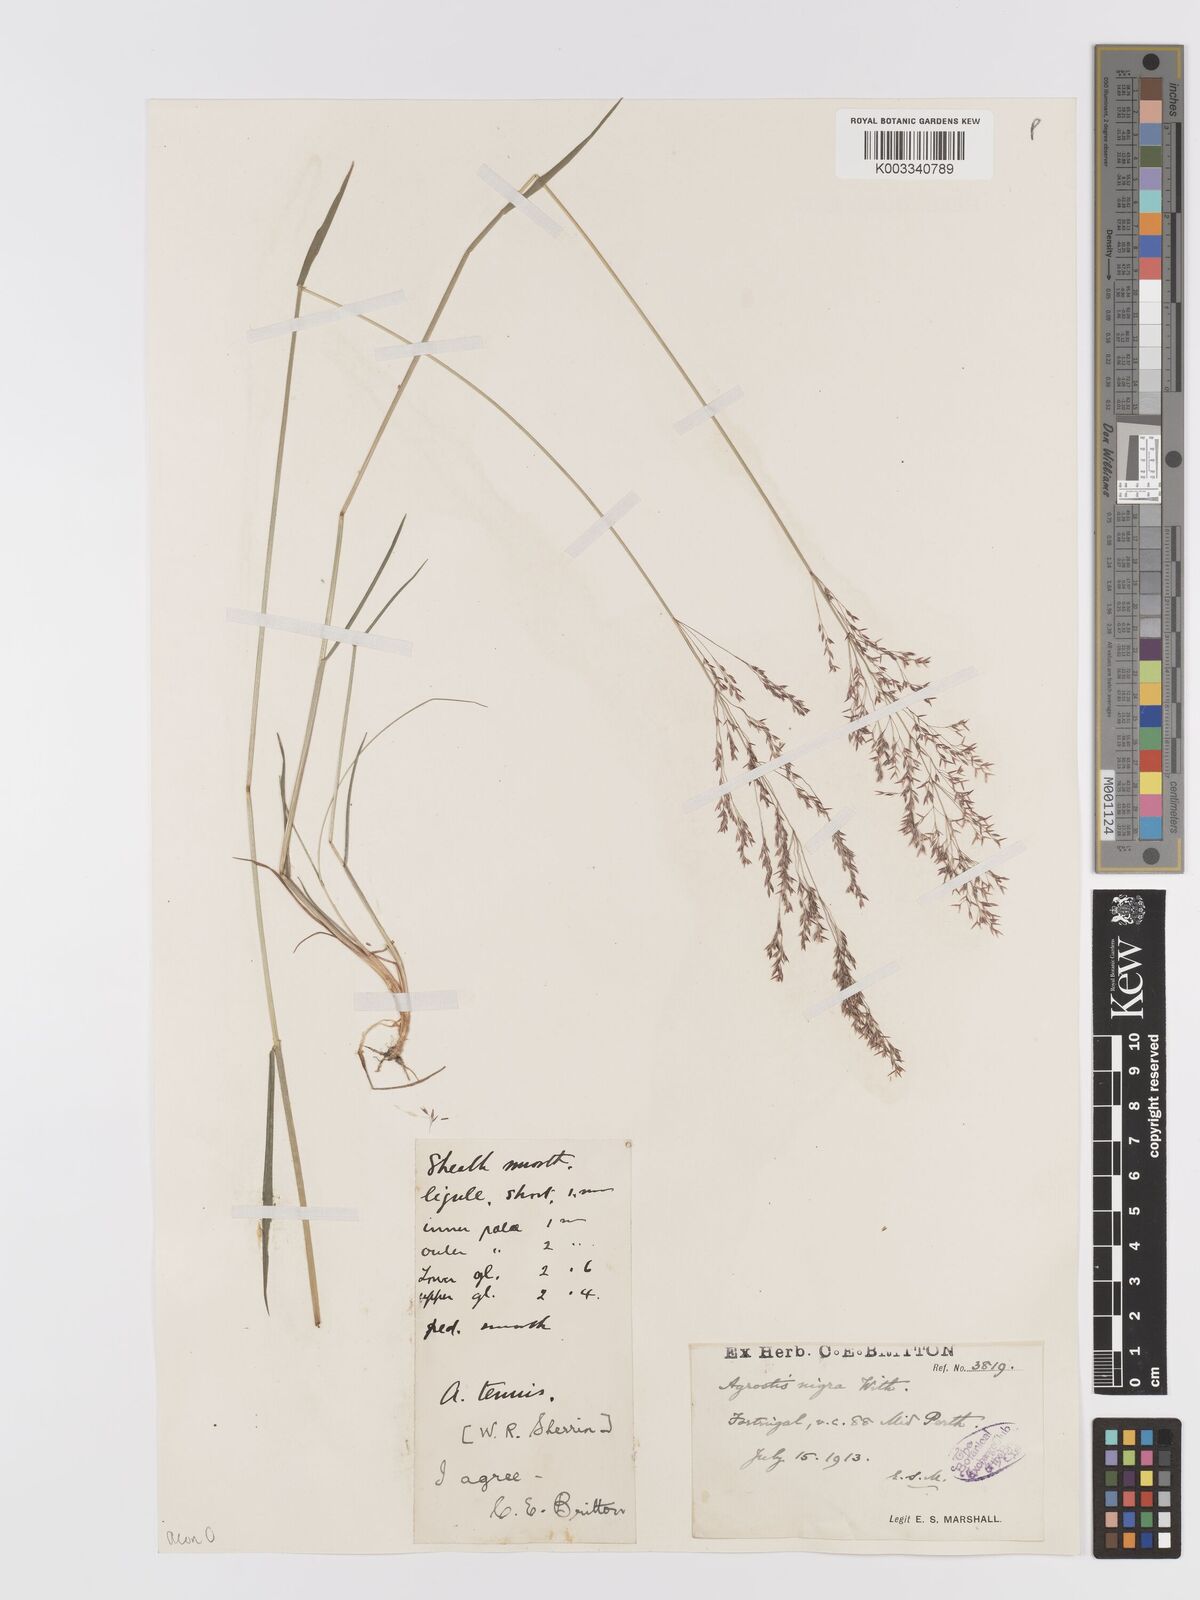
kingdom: Plantae
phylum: Tracheophyta
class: Liliopsida
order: Poales
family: Poaceae
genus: Agrostis
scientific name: Agrostis capillaris
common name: Colonial bentgrass
